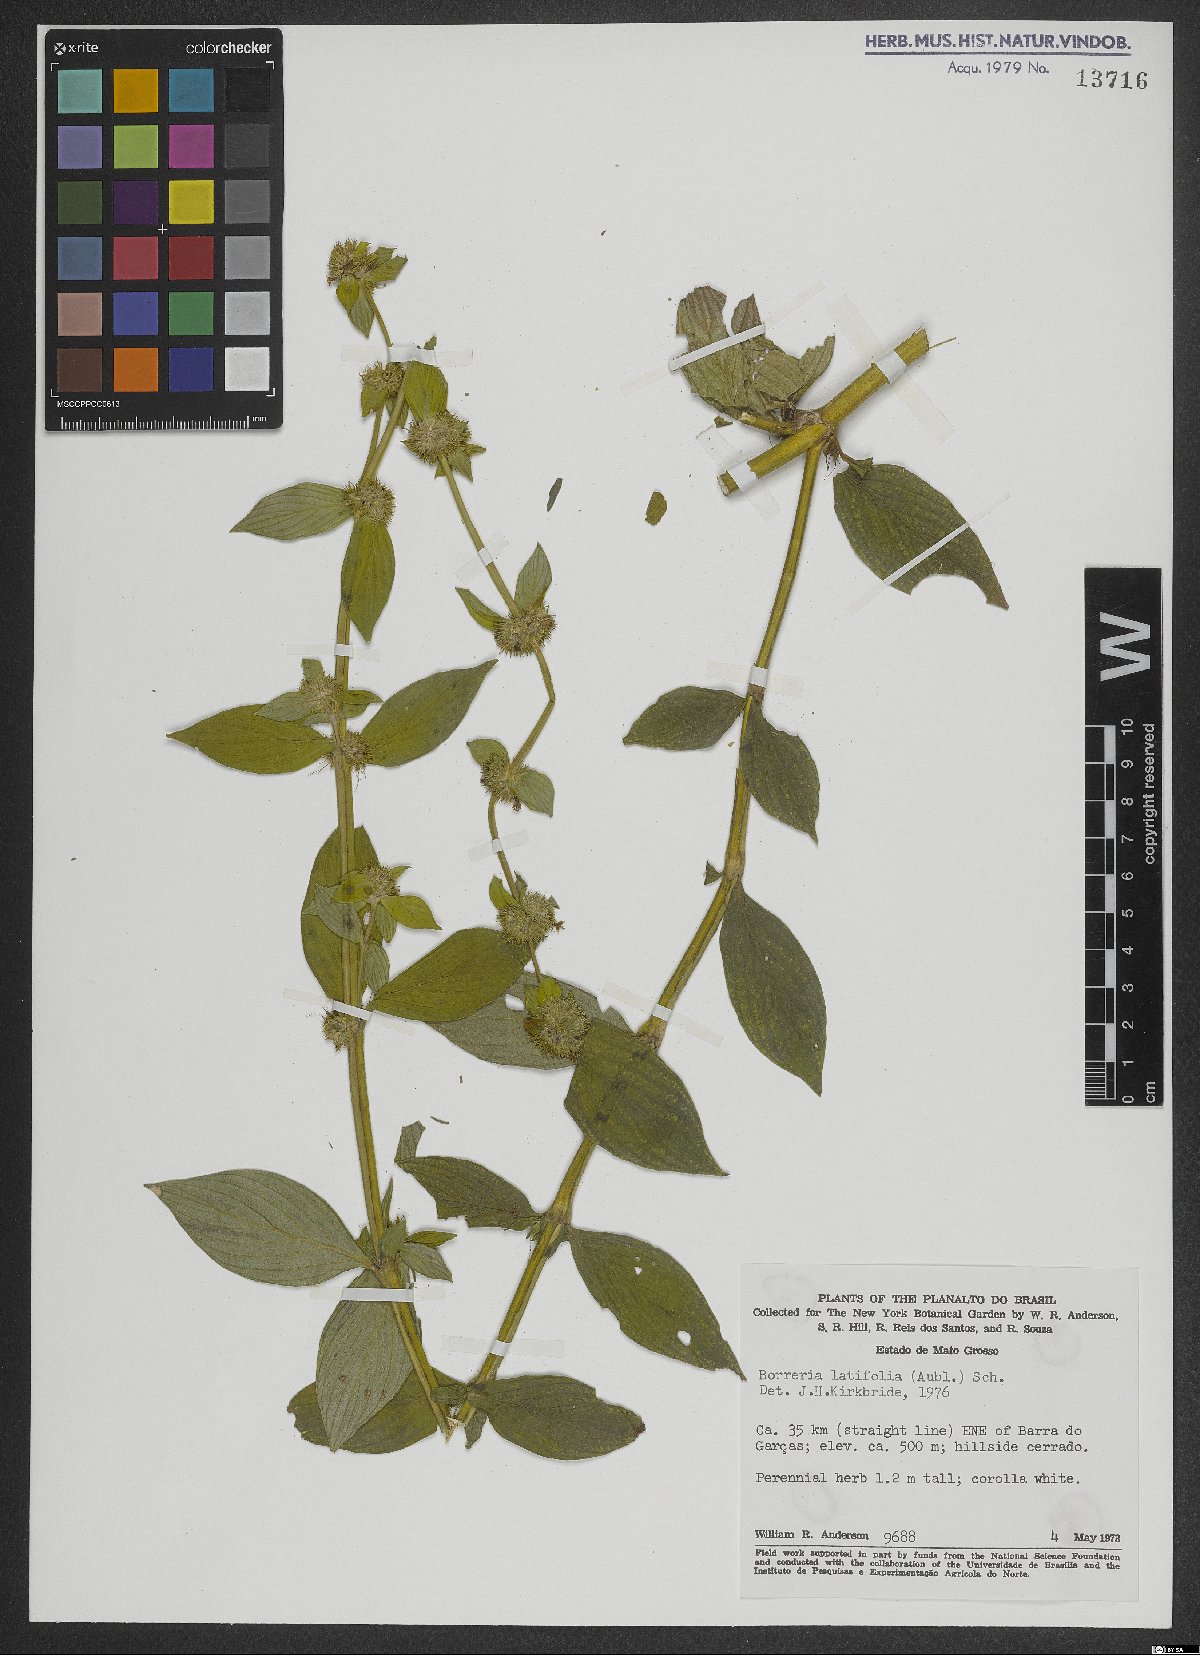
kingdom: Plantae
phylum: Tracheophyta
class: Magnoliopsida
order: Gentianales
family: Rubiaceae
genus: Spermacoce
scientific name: Spermacoce latifolia
